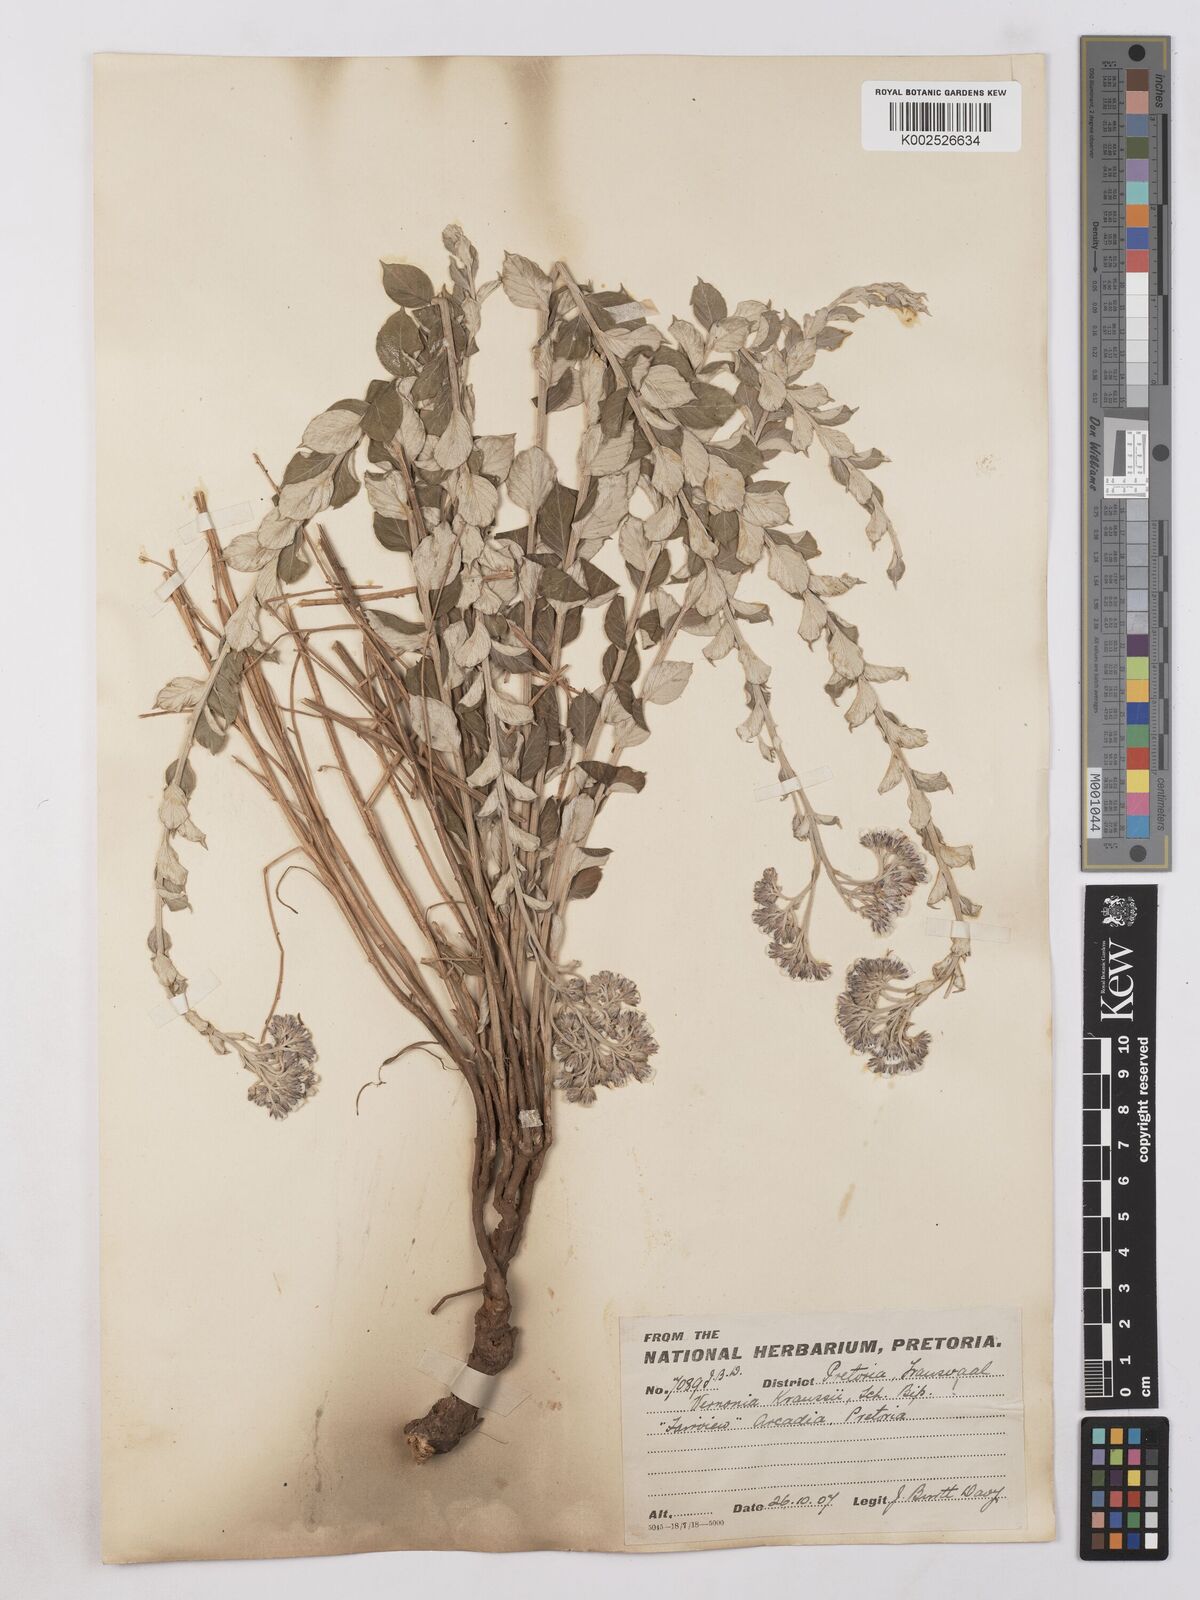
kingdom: Plantae
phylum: Tracheophyta
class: Magnoliopsida
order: Asterales
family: Asteraceae
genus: Hilliardiella
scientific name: Hilliardiella oligocephala
